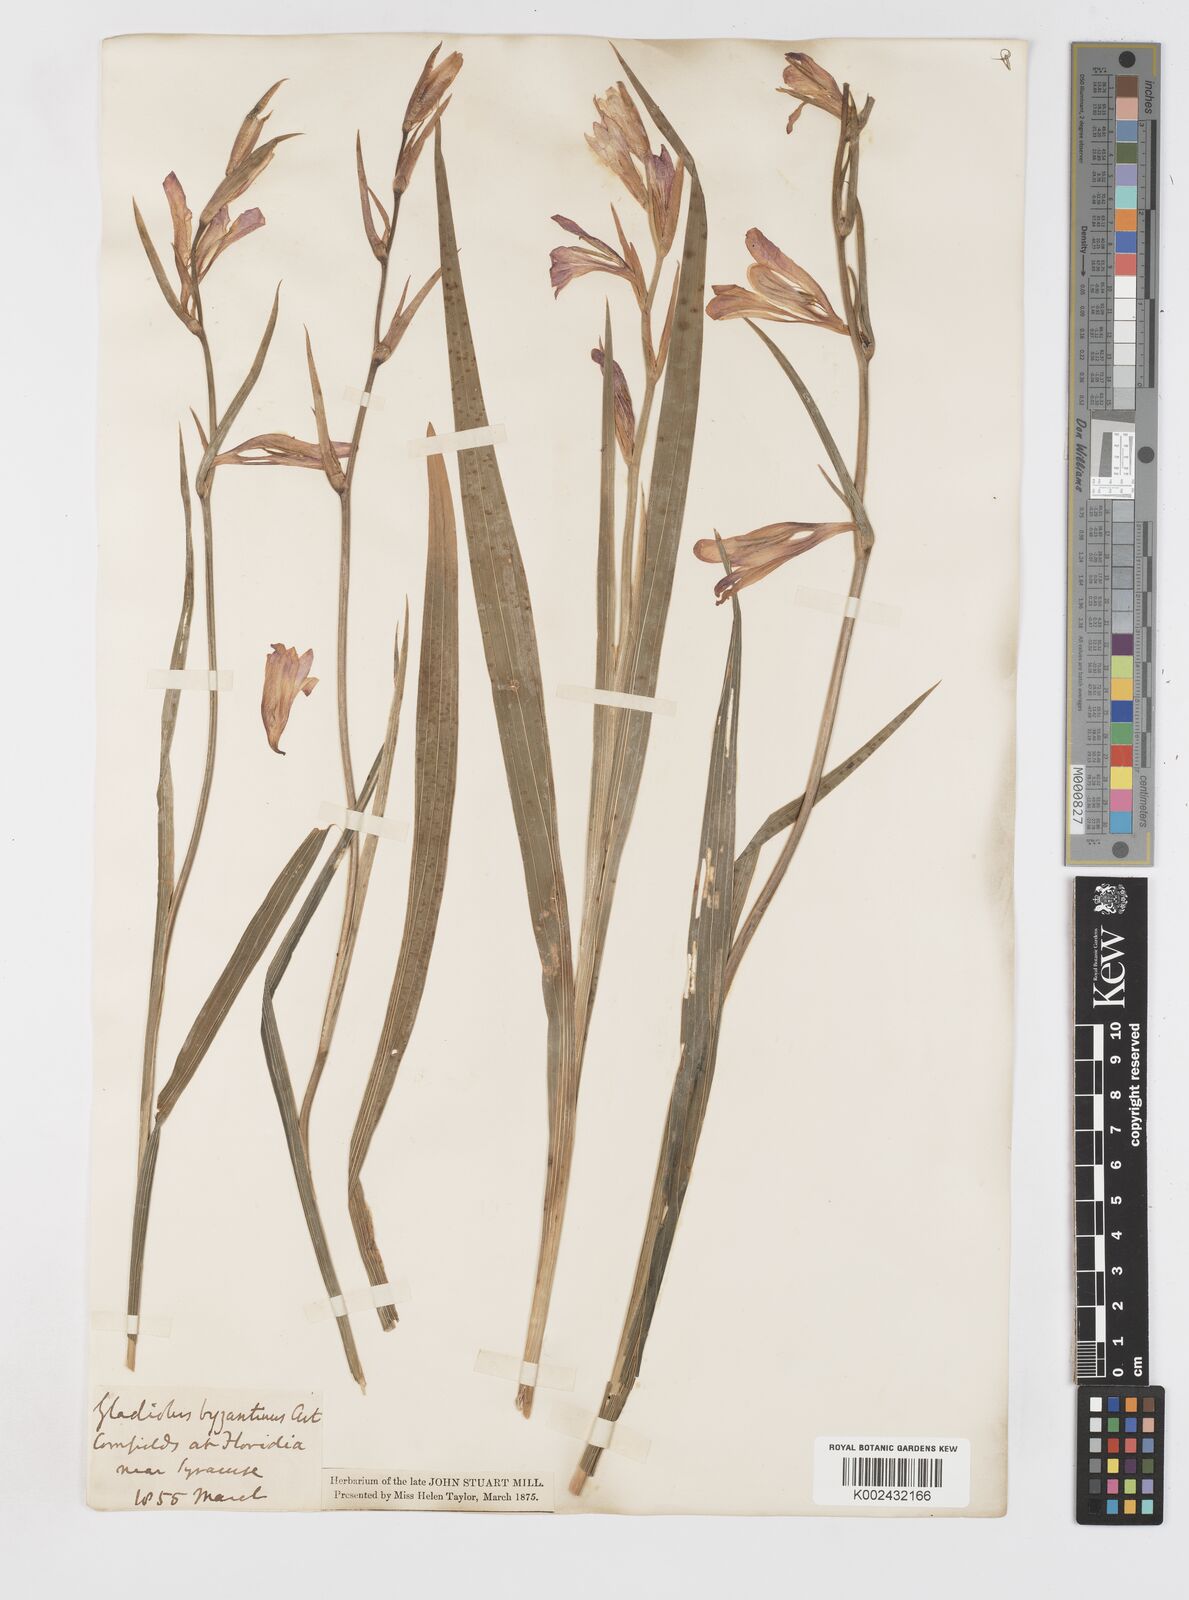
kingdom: Plantae
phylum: Tracheophyta
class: Liliopsida
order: Asparagales
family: Iridaceae
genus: Gladiolus
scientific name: Gladiolus italicus
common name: Field gladiolus
